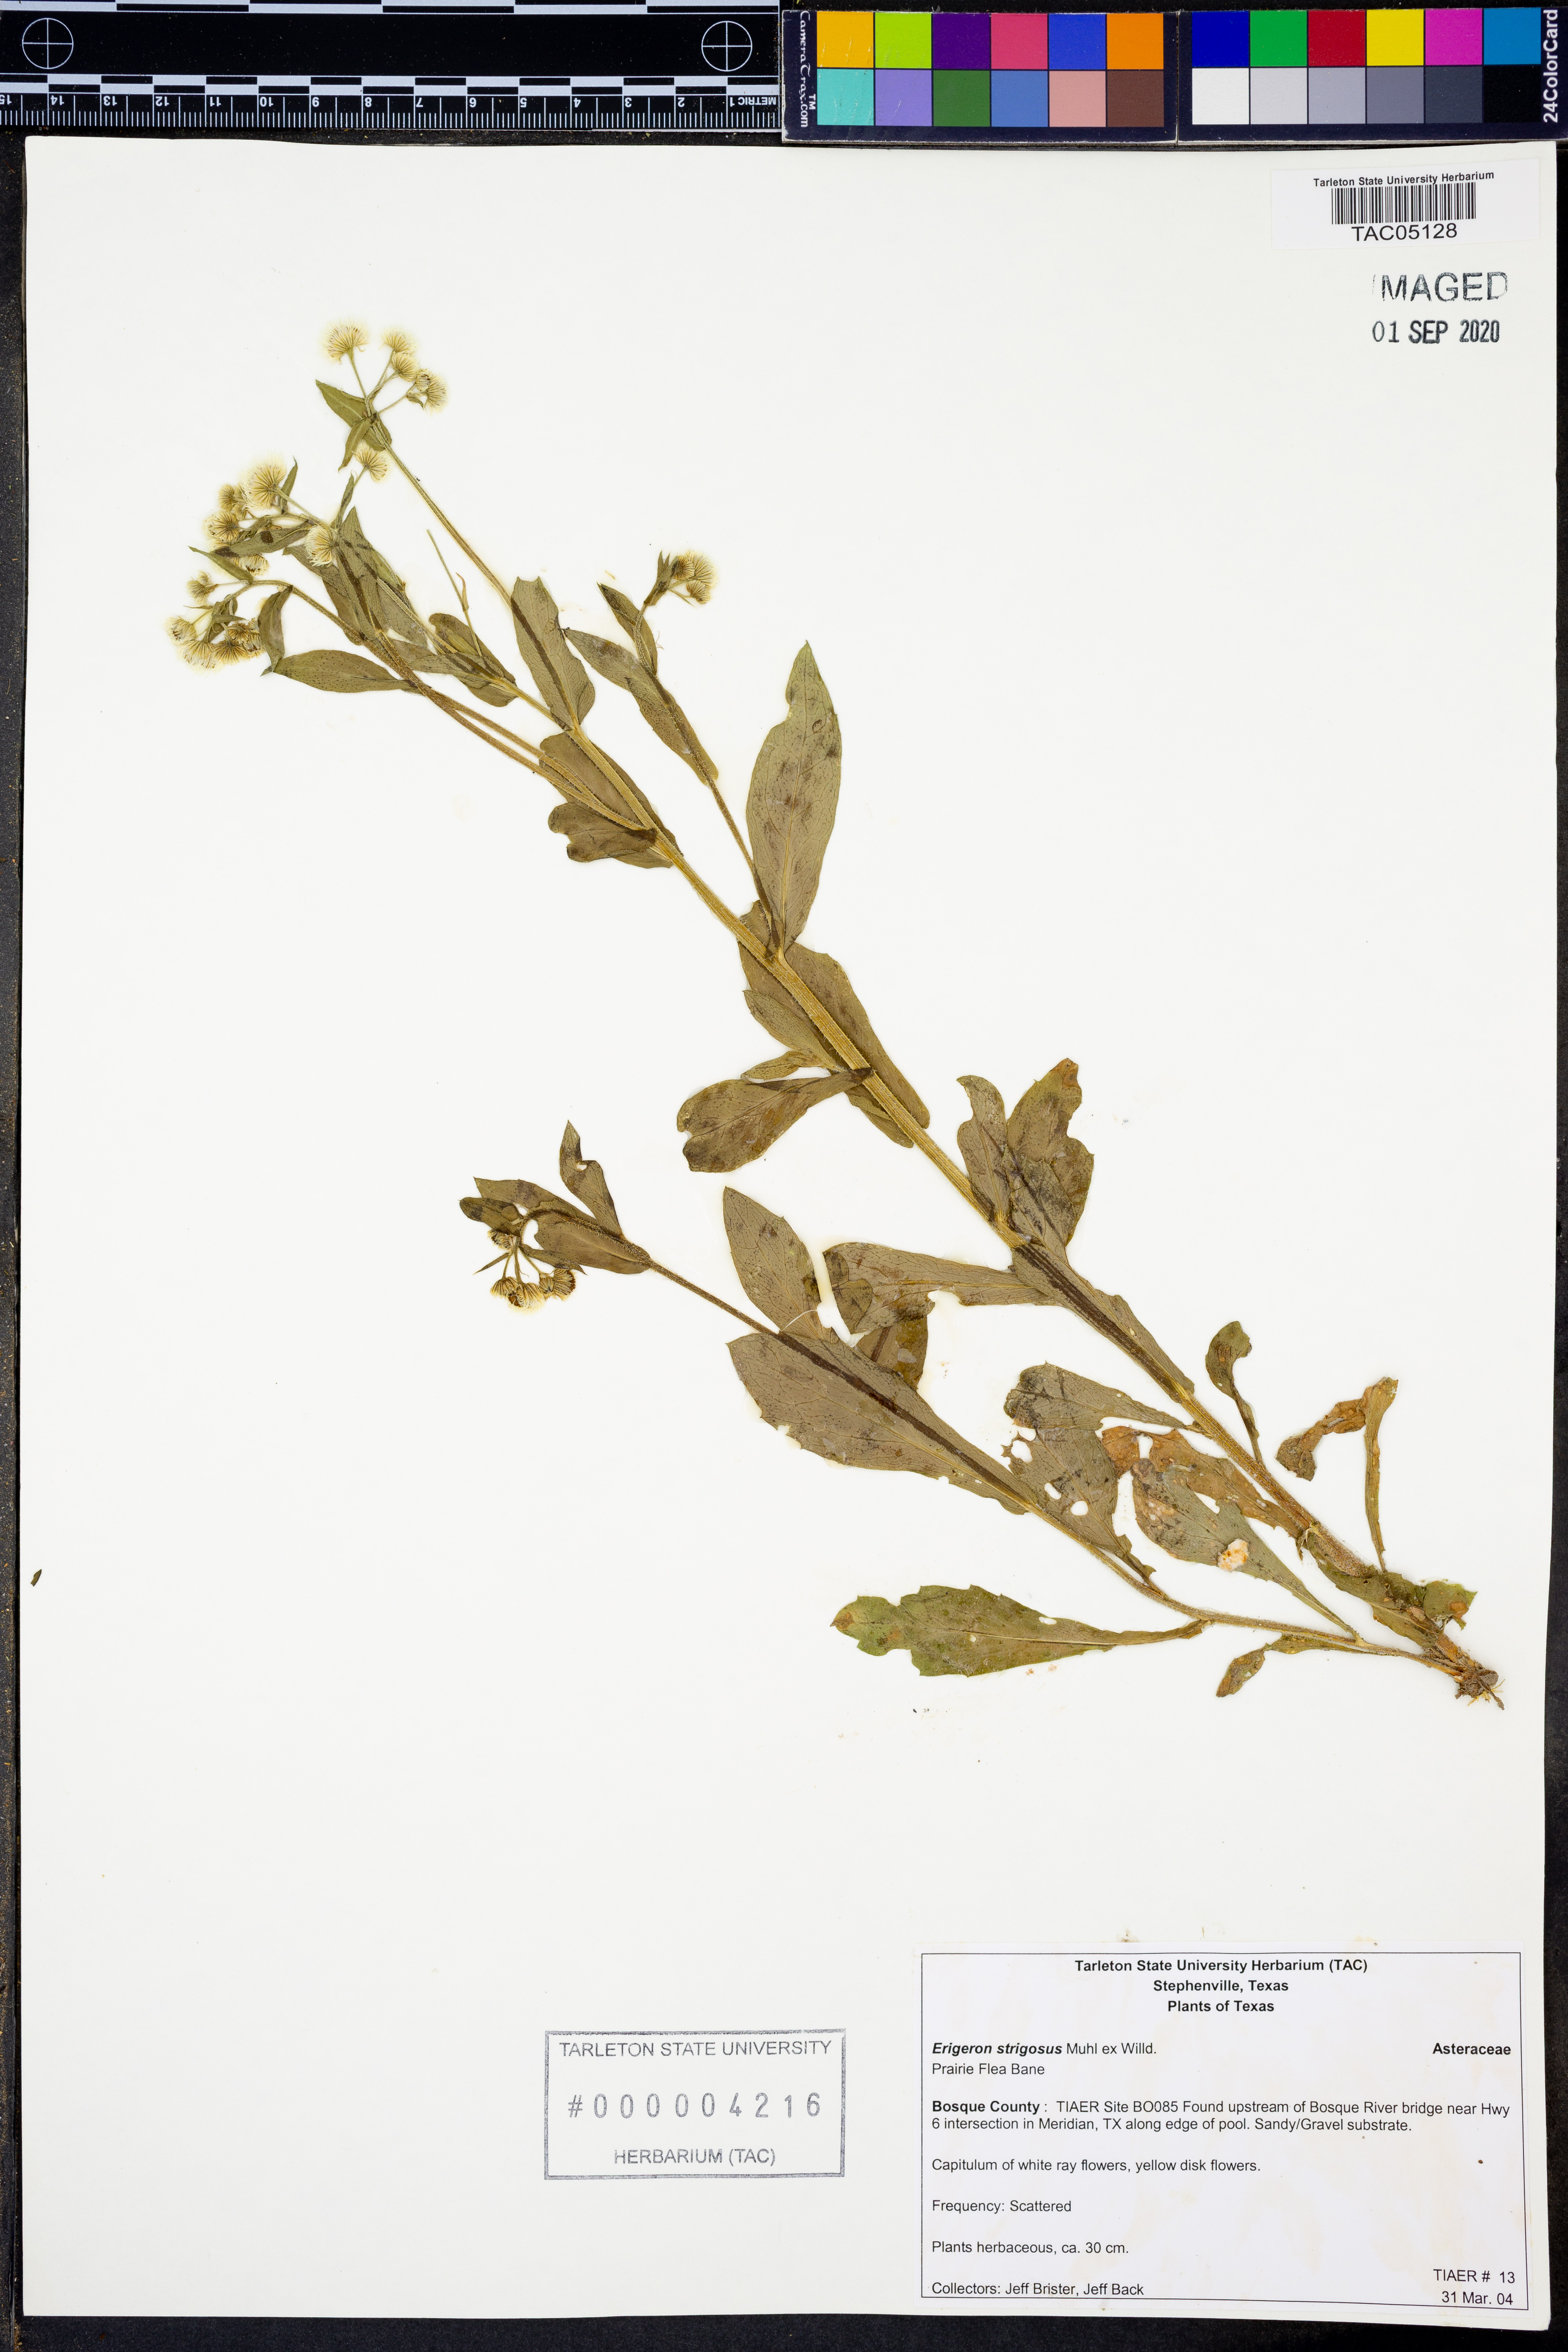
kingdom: Plantae
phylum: Tracheophyta
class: Magnoliopsida
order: Asterales
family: Asteraceae
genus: Erigeron
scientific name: Erigeron strigosus
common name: Common eastern fleabane
